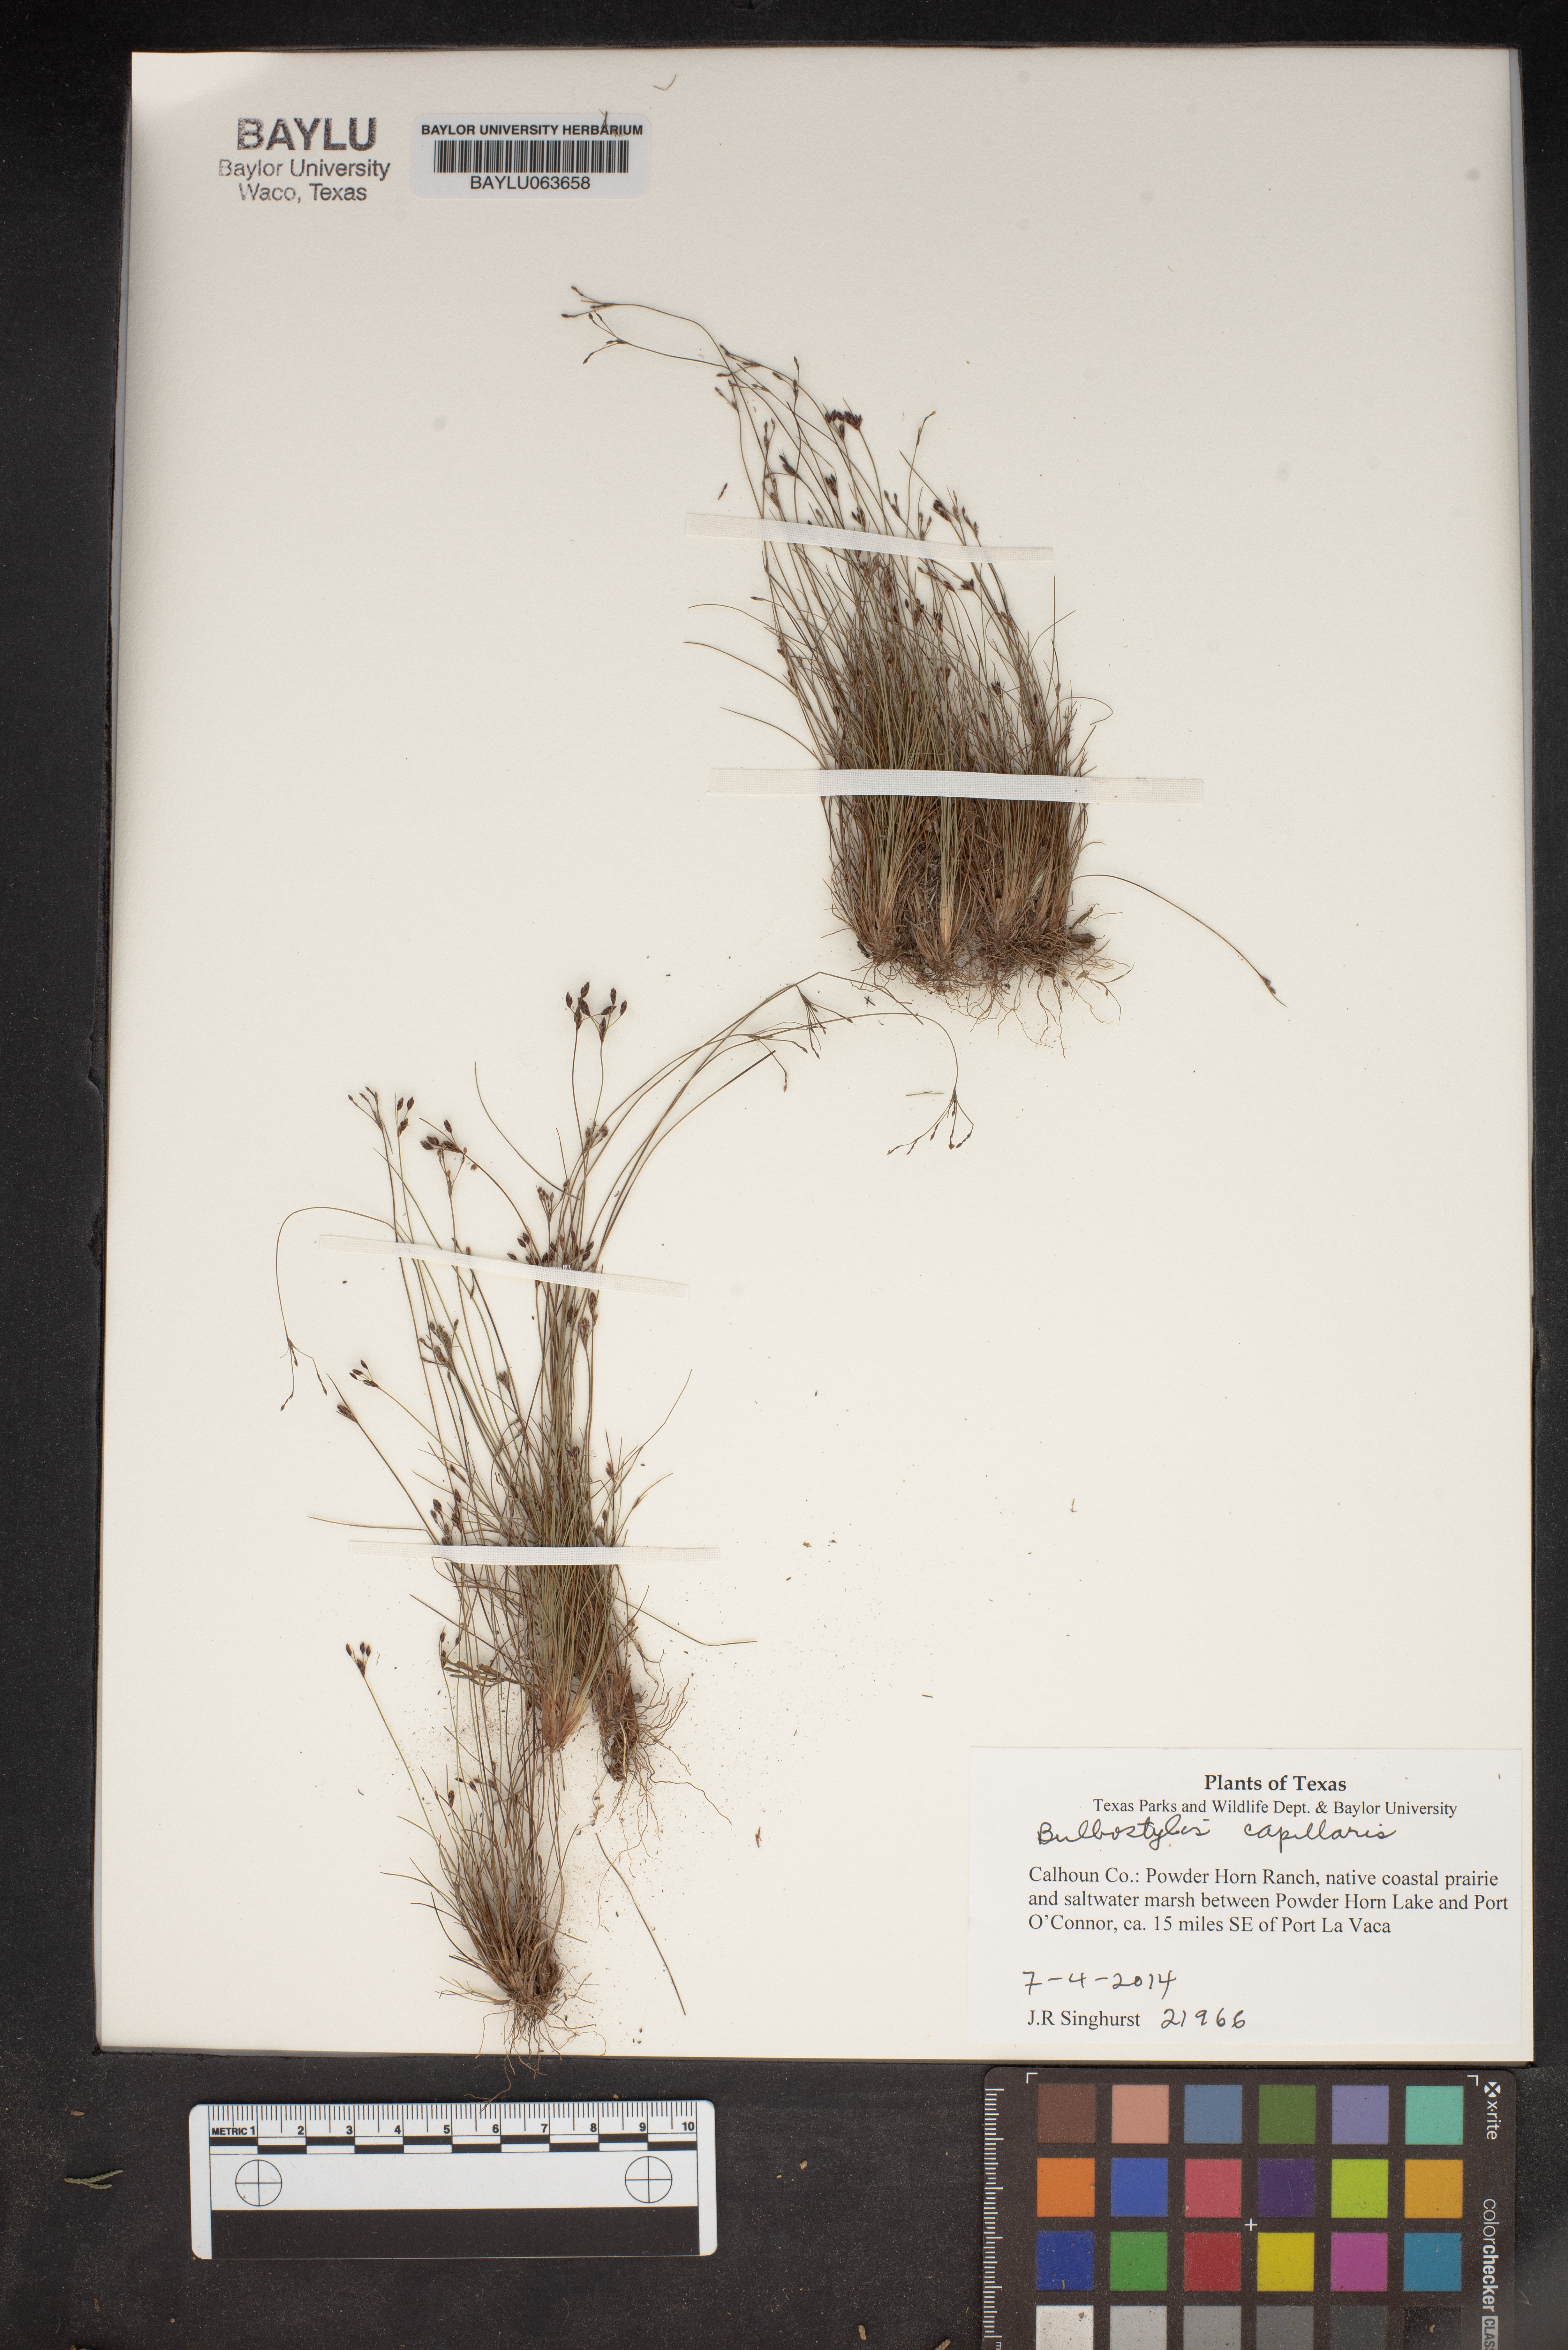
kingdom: Plantae
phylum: Tracheophyta
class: Liliopsida
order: Poales
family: Cyperaceae
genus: Bulbostylis
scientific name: Bulbostylis capillaris
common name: Densetuft hairsedge
